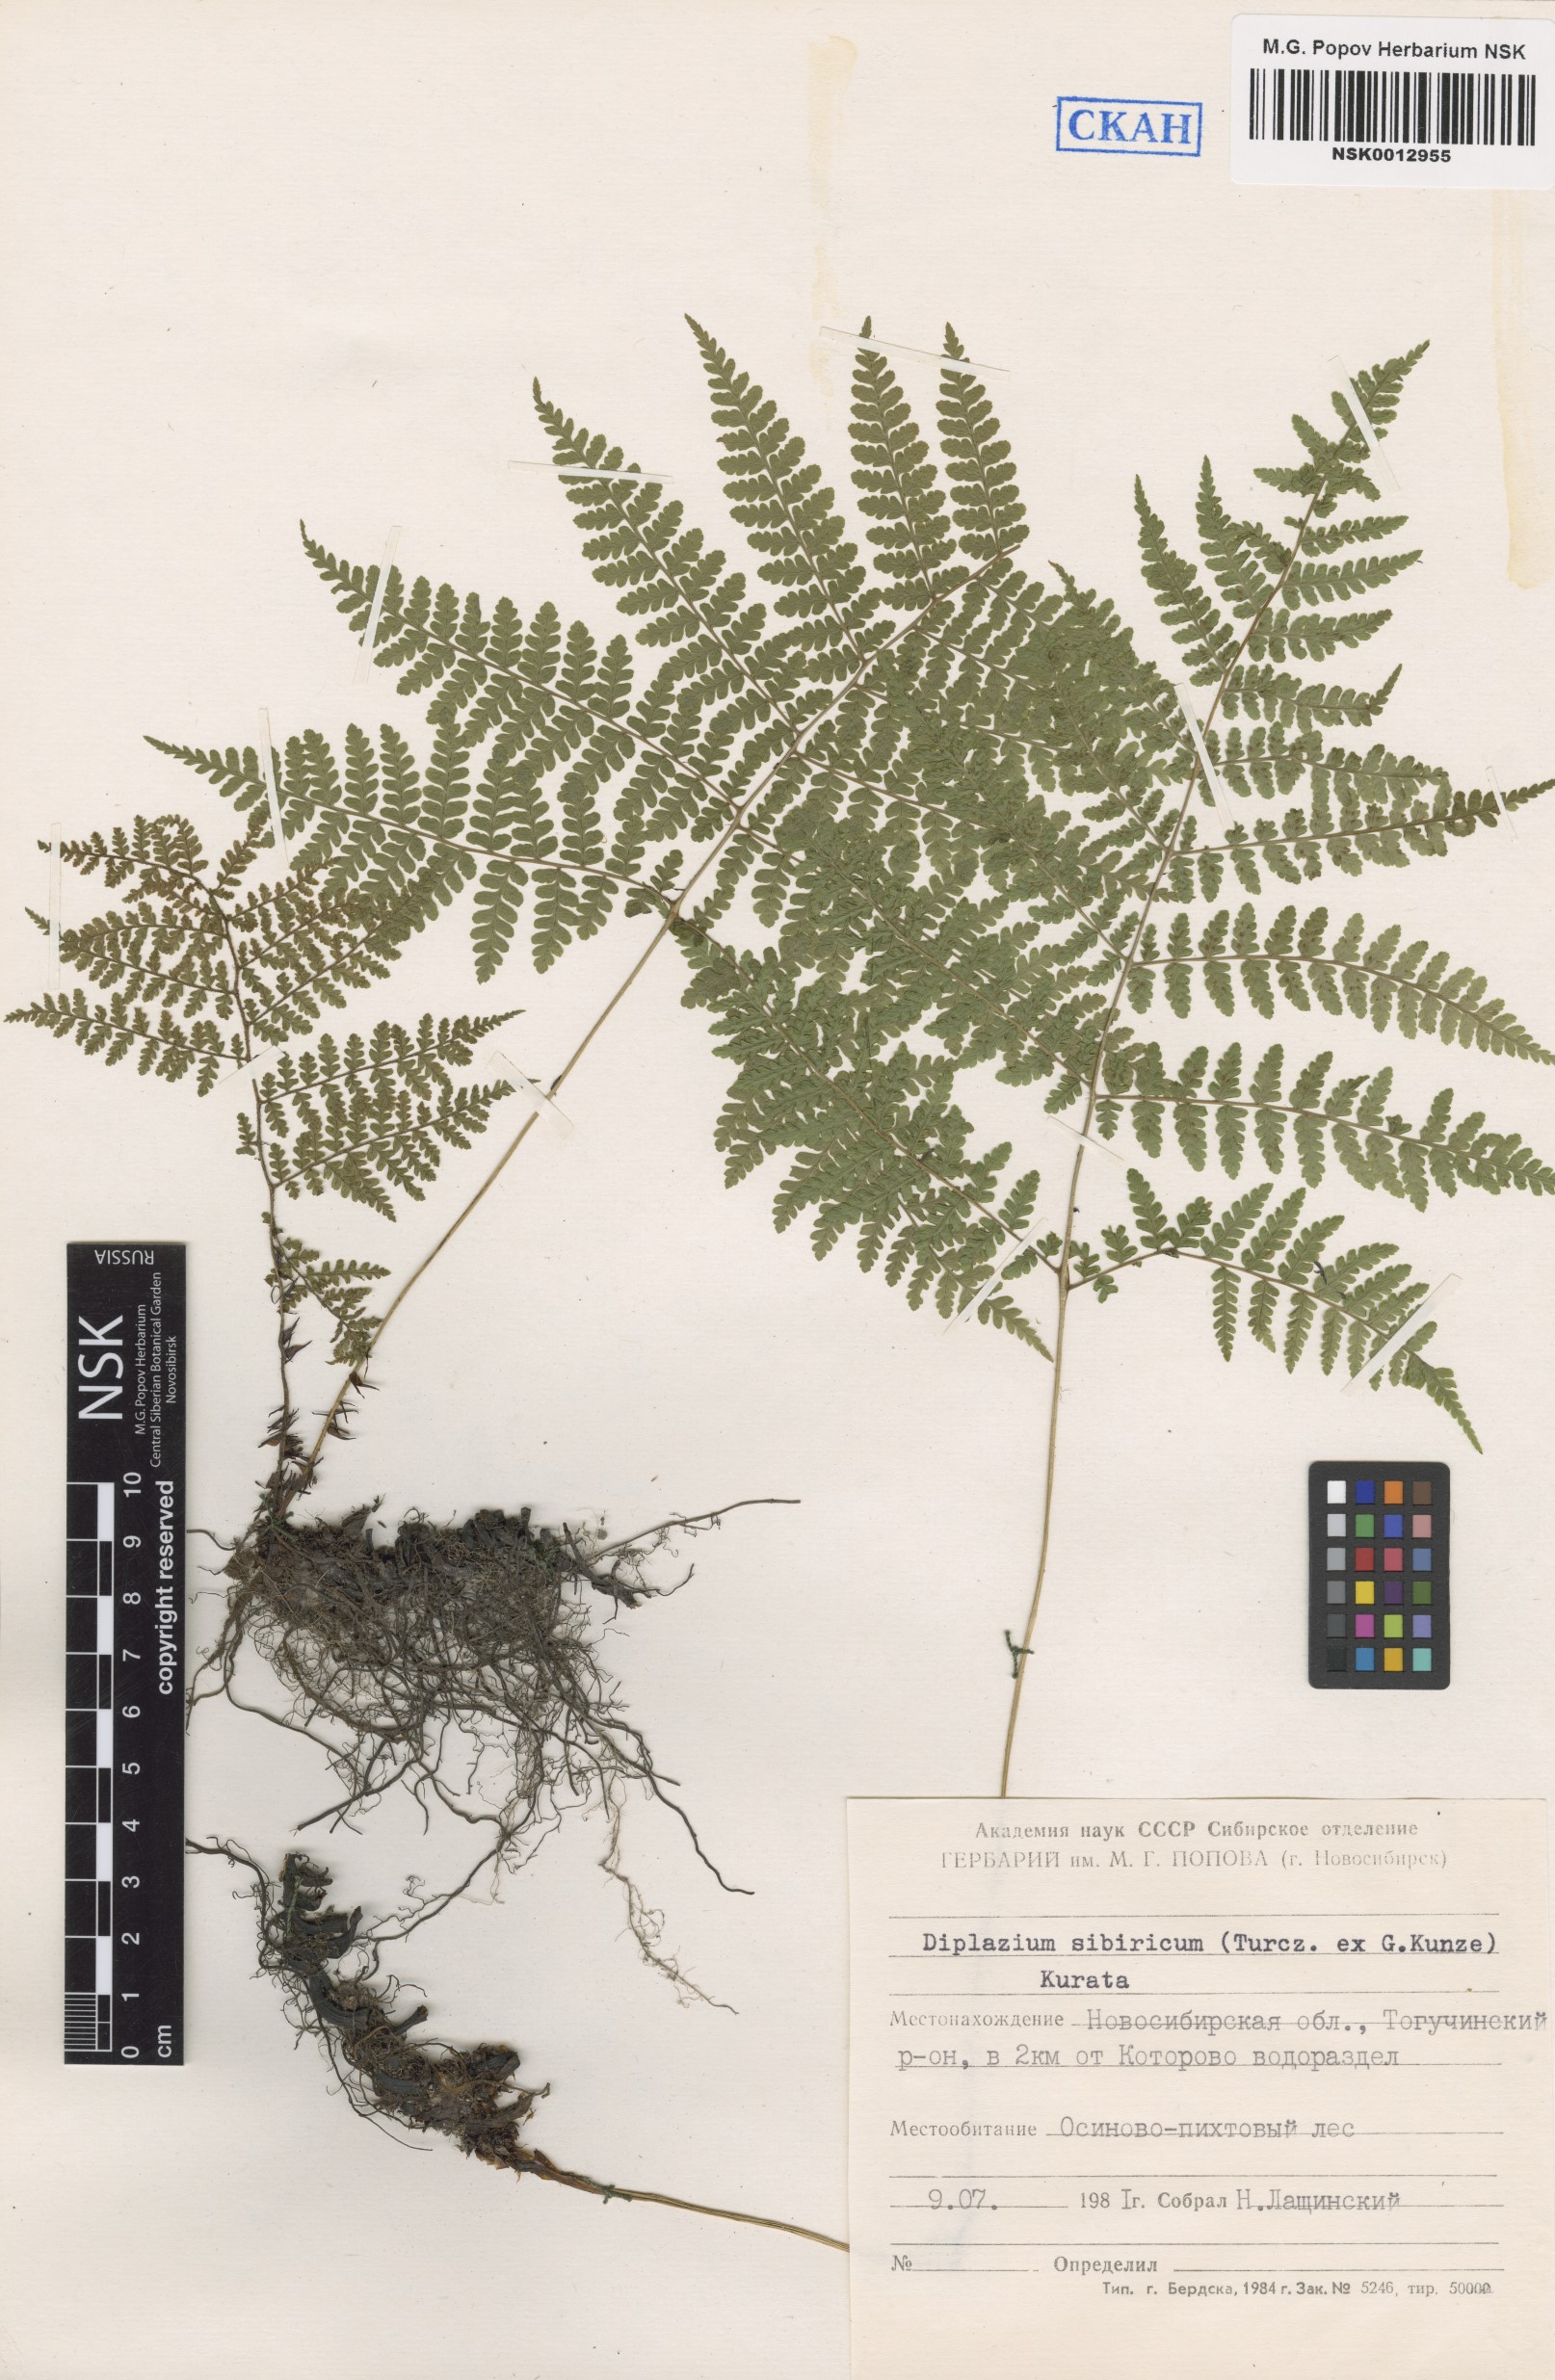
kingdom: Plantae
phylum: Tracheophyta
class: Polypodiopsida
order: Polypodiales
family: Athyriaceae
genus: Diplazium
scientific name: Diplazium sibiricum
